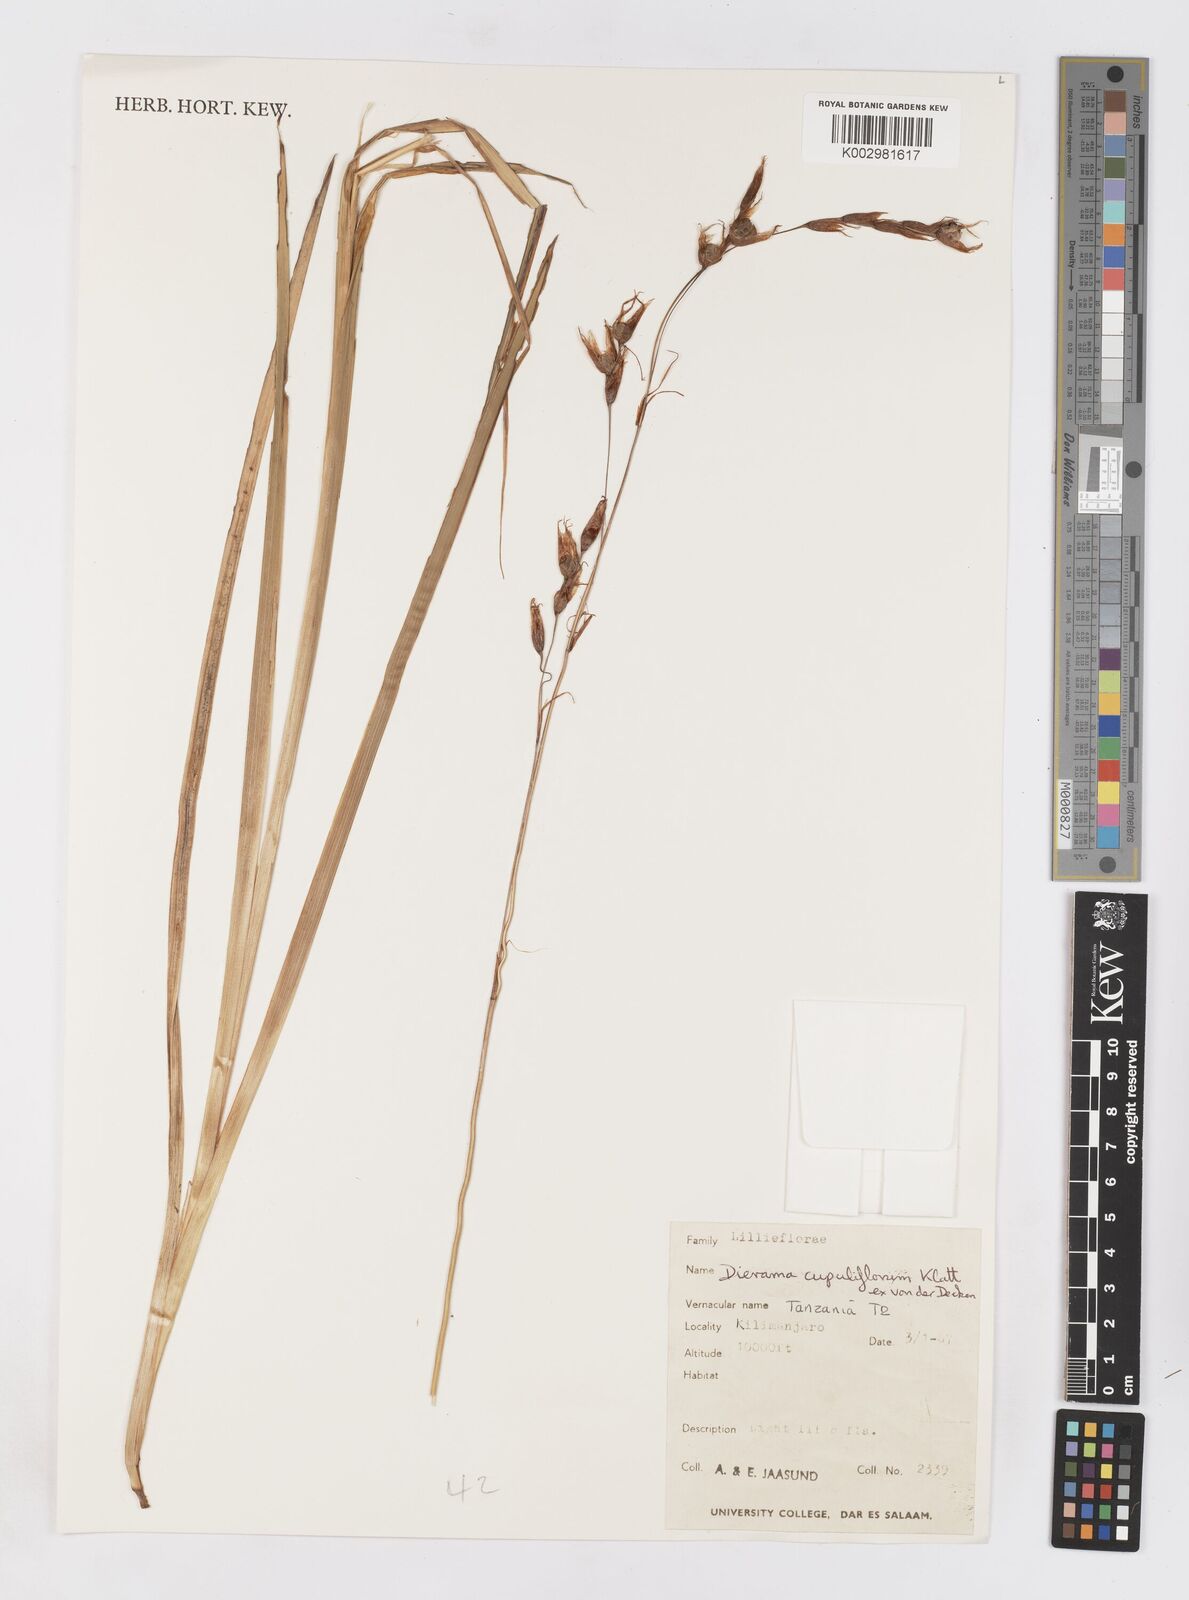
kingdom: Plantae
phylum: Tracheophyta
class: Liliopsida
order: Asparagales
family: Iridaceae
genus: Dierama
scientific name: Dierama cupuliflorum
